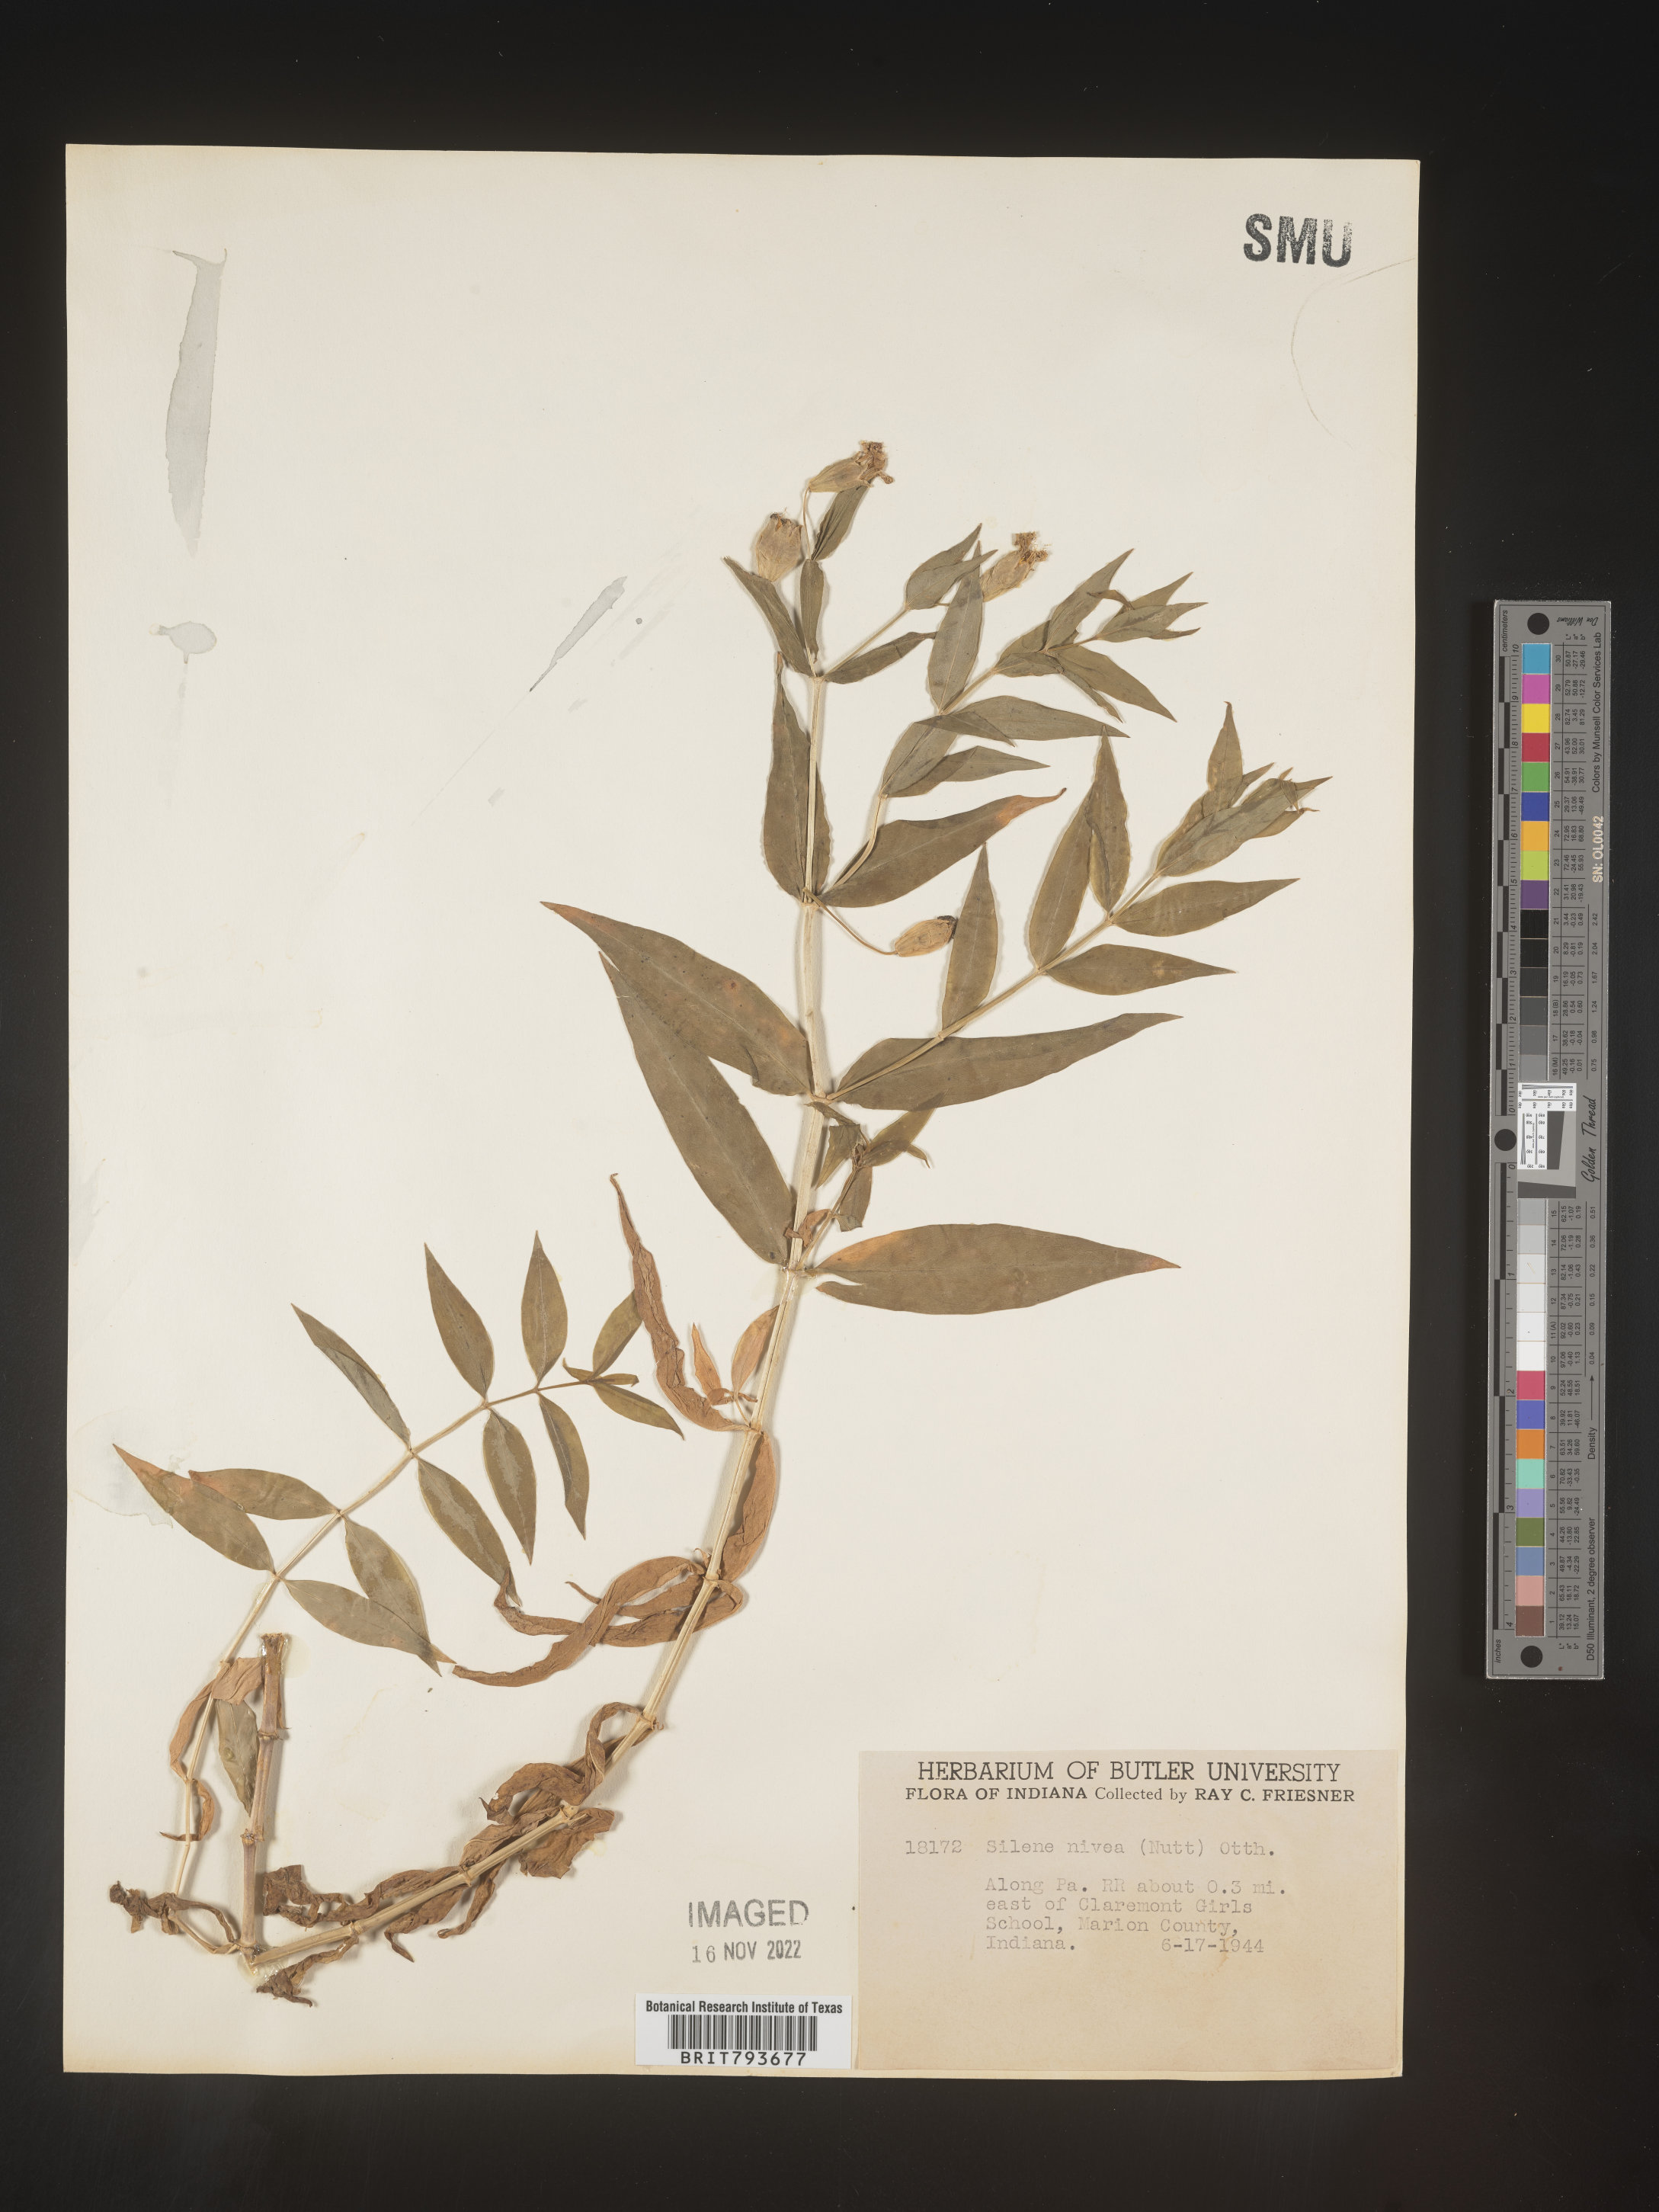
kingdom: Plantae
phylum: Tracheophyta
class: Magnoliopsida
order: Caryophyllales
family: Caryophyllaceae
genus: Silene
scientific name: Silene nivea
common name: Snowy campion
